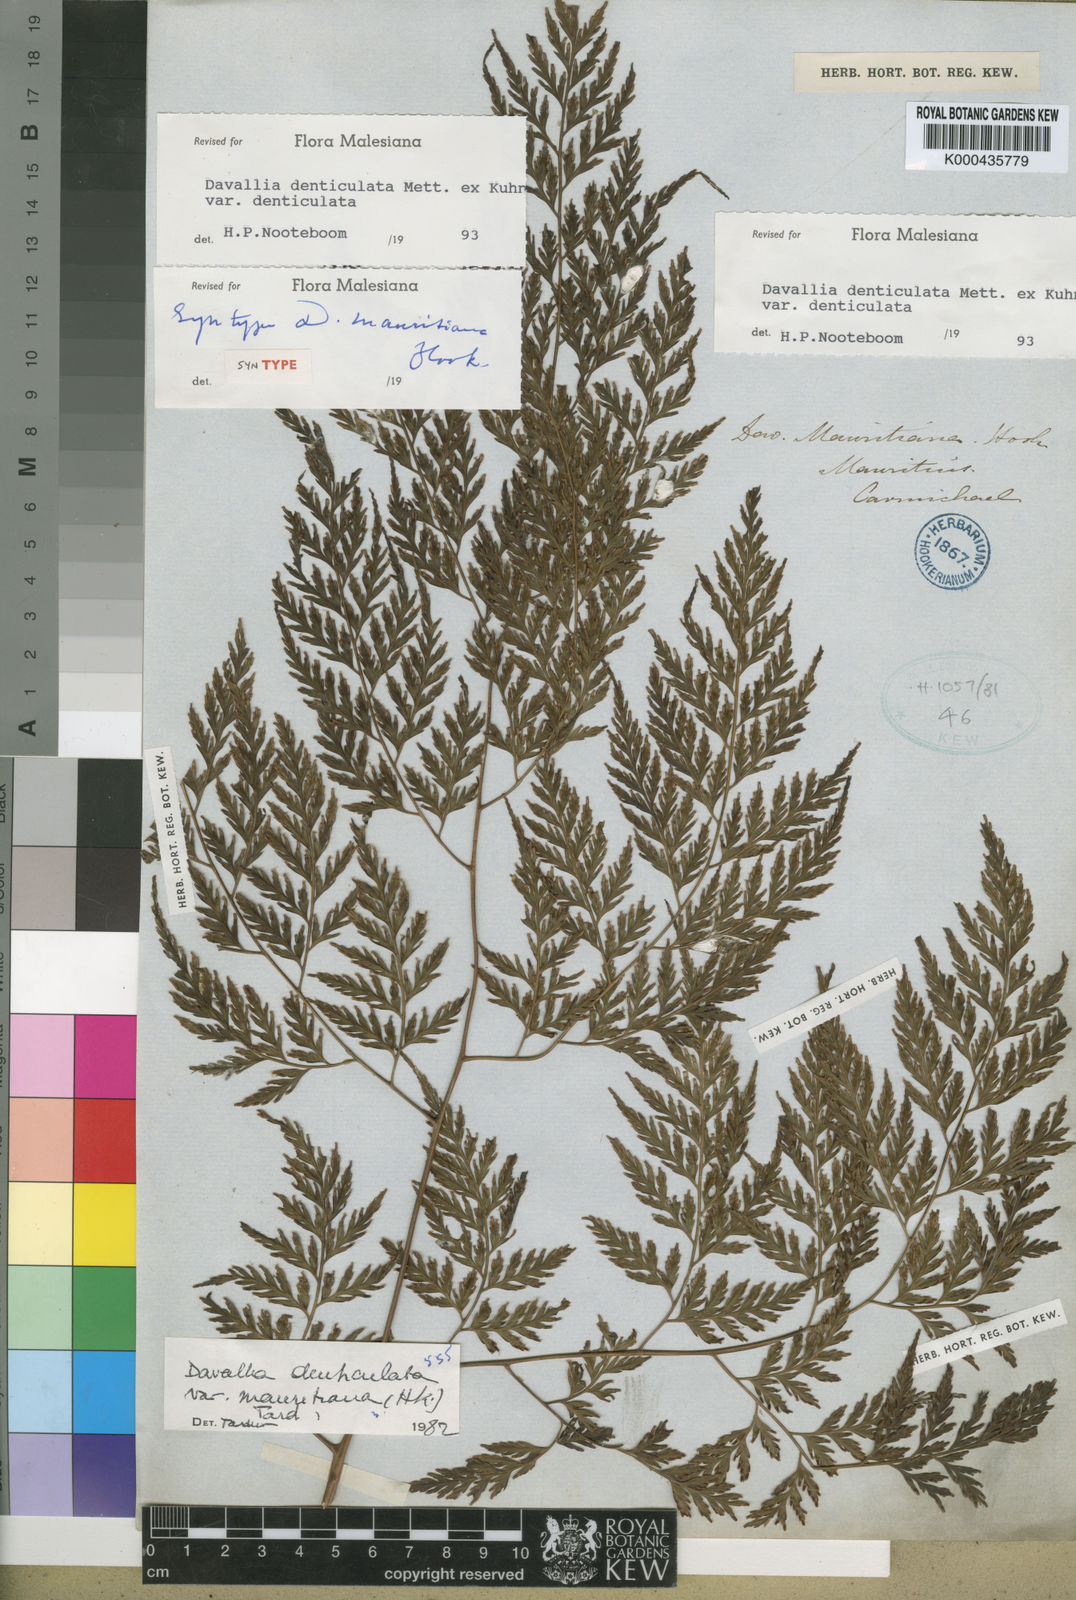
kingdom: Plantae
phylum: Tracheophyta
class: Polypodiopsida
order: Polypodiales
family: Davalliaceae
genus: Davallia
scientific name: Davallia
